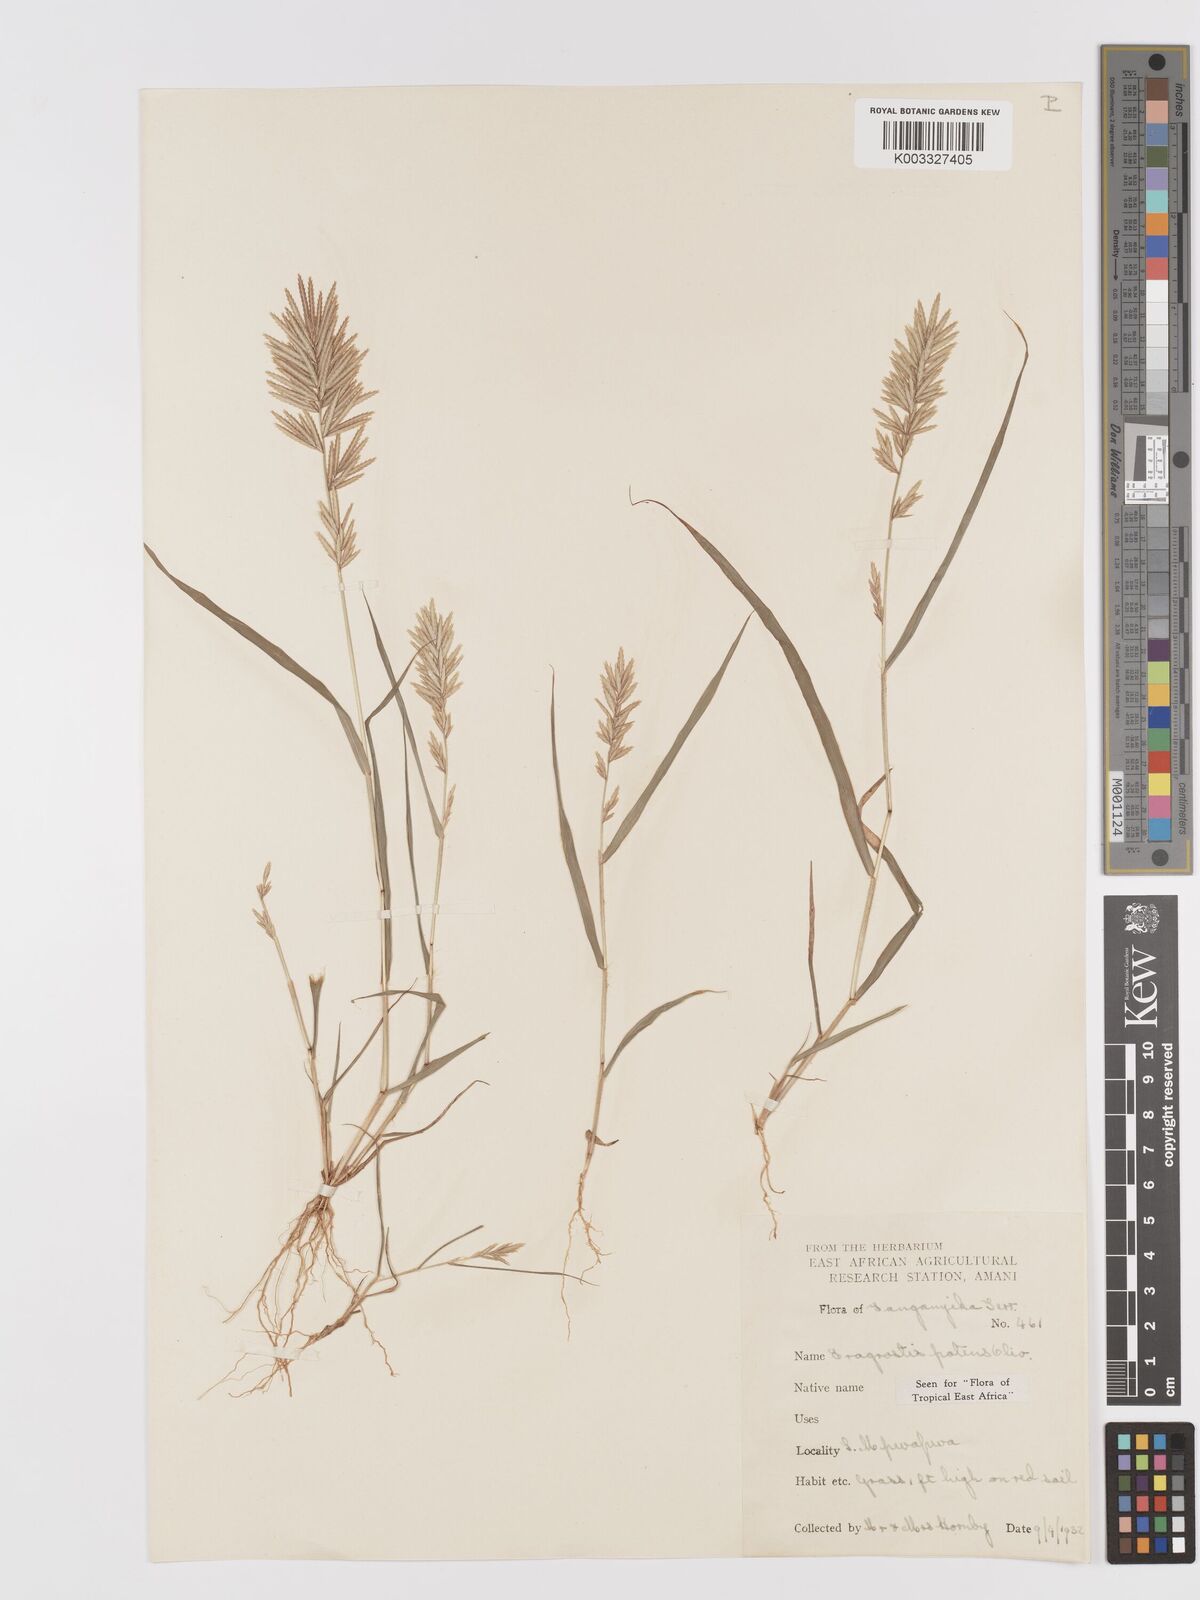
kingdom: Plantae
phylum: Tracheophyta
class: Liliopsida
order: Poales
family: Poaceae
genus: Eragrostis
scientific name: Eragrostis patens
